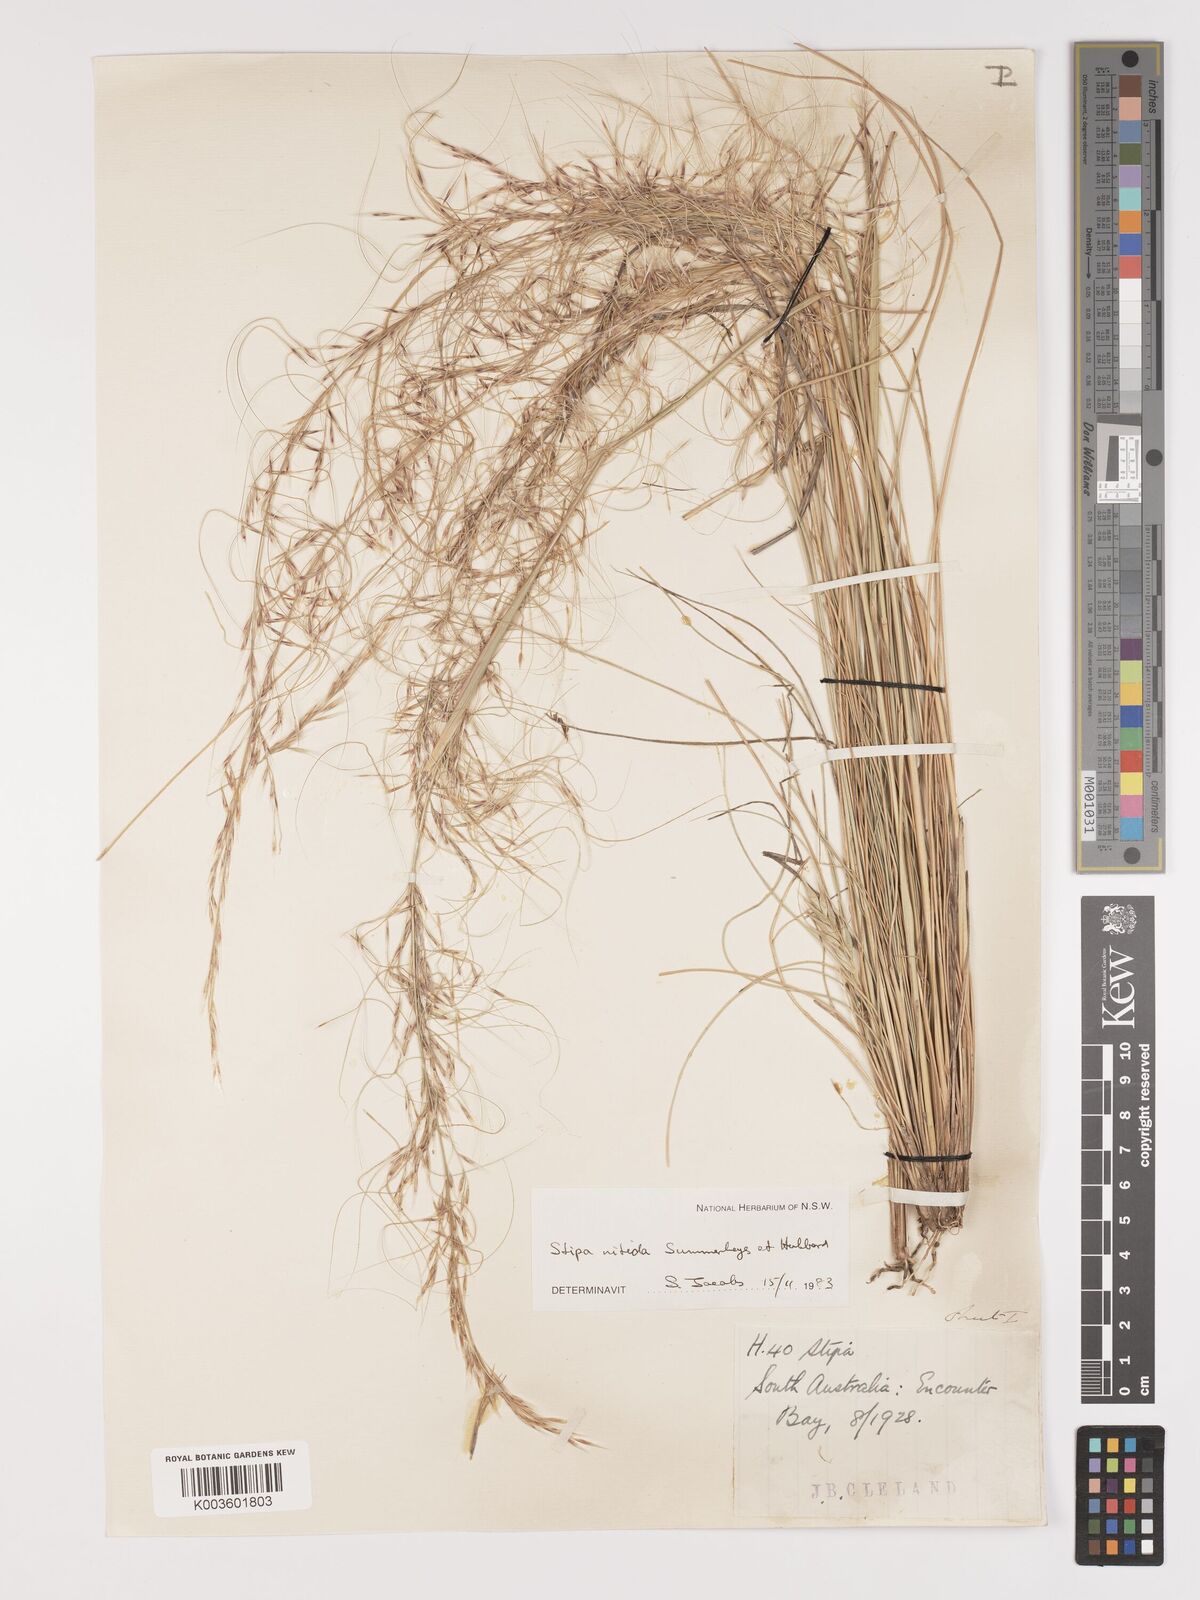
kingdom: Plantae
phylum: Tracheophyta
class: Liliopsida
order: Poales
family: Poaceae
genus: Austrostipa
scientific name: Austrostipa nitida
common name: Balcarra grass
